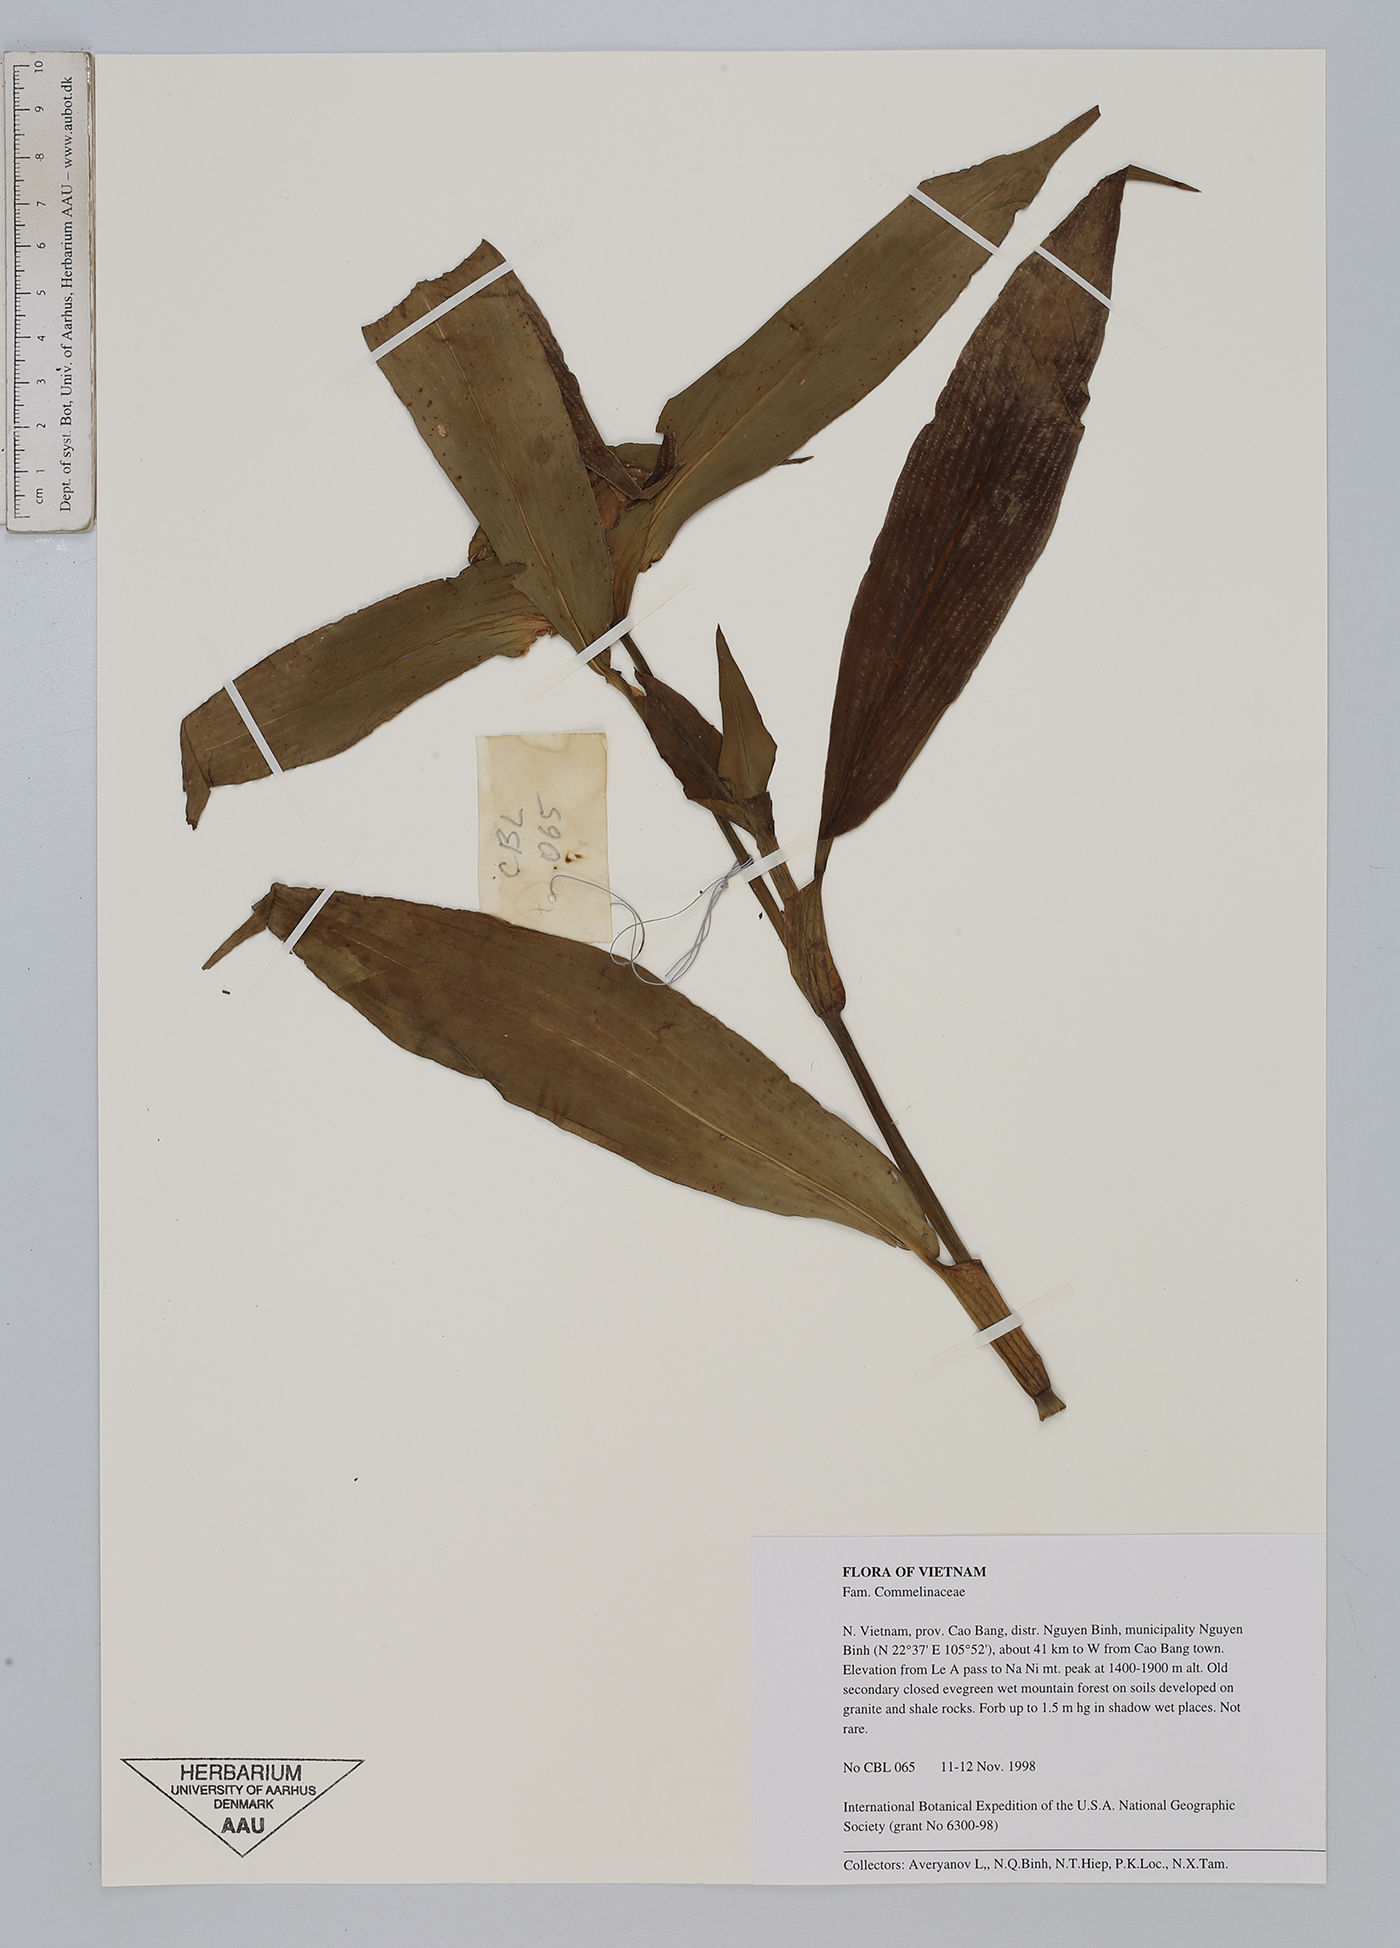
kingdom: Plantae
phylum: Tracheophyta
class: Liliopsida
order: Commelinales
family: Commelinaceae
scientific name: Commelinaceae
